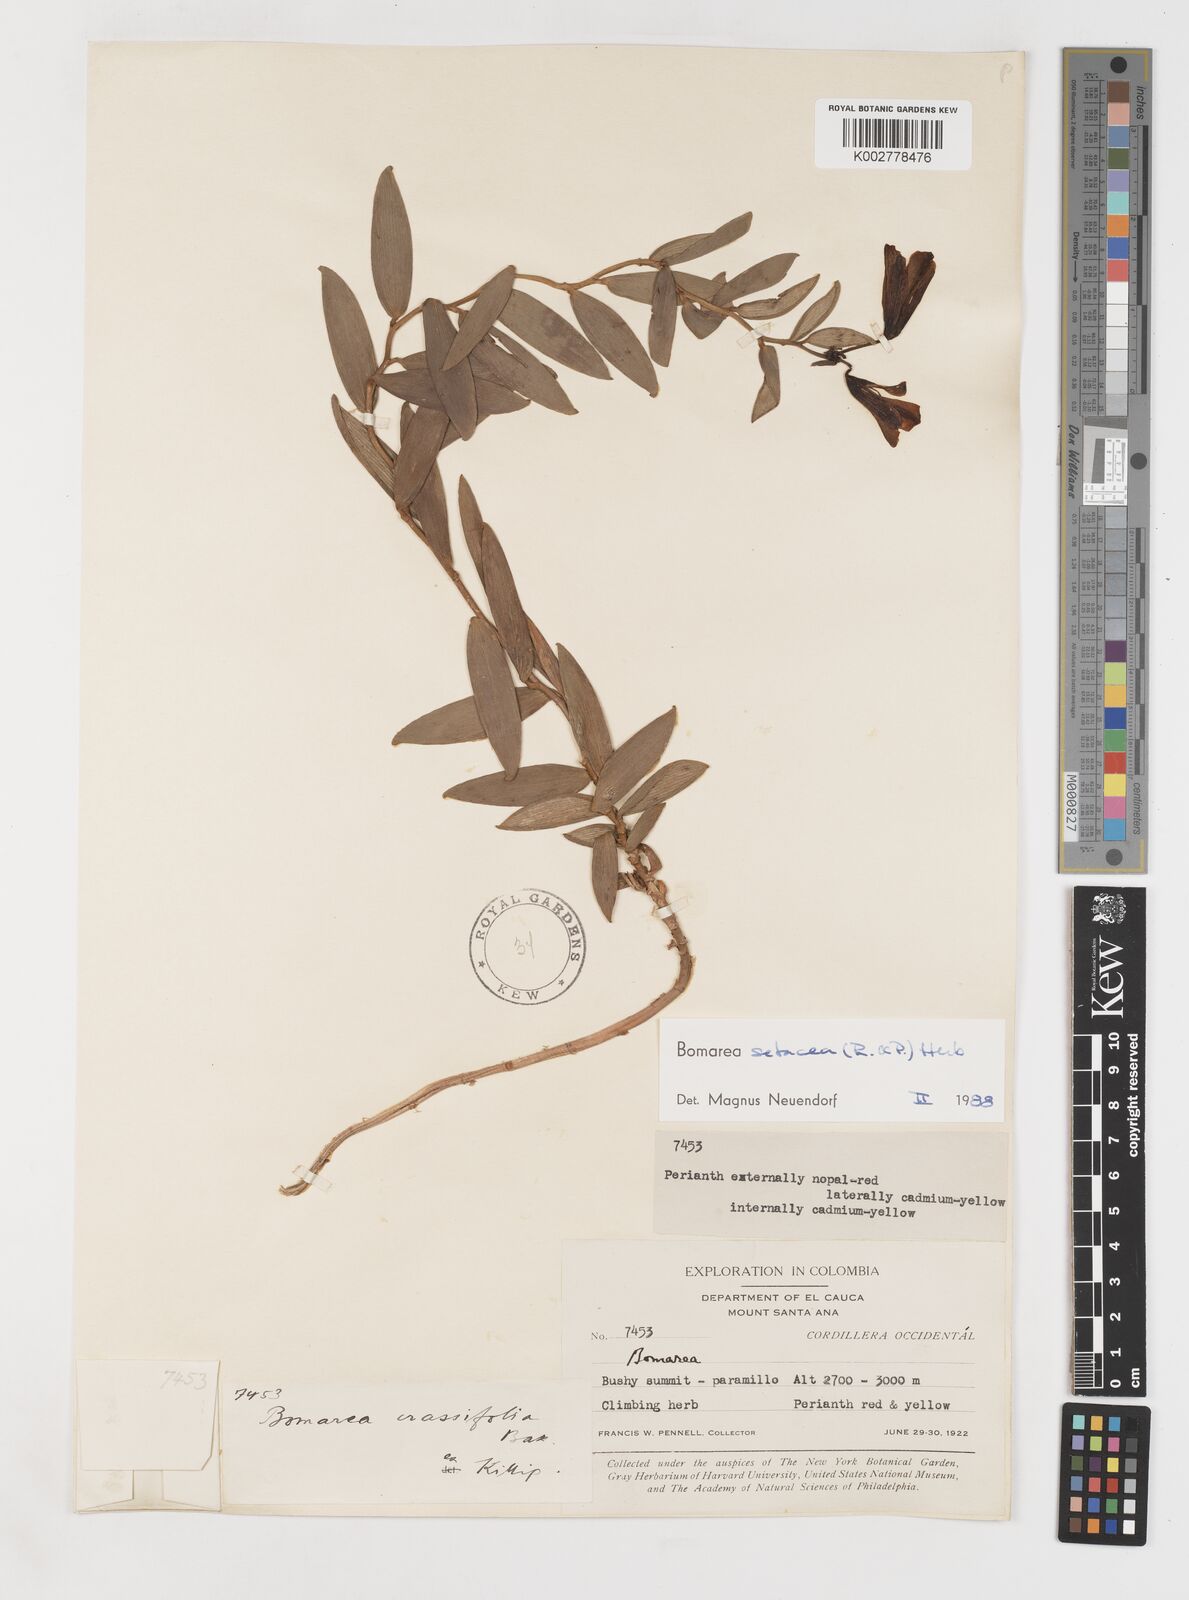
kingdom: Plantae
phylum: Tracheophyta
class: Liliopsida
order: Liliales
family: Alstroemeriaceae
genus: Bomarea
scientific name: Bomarea setacea
